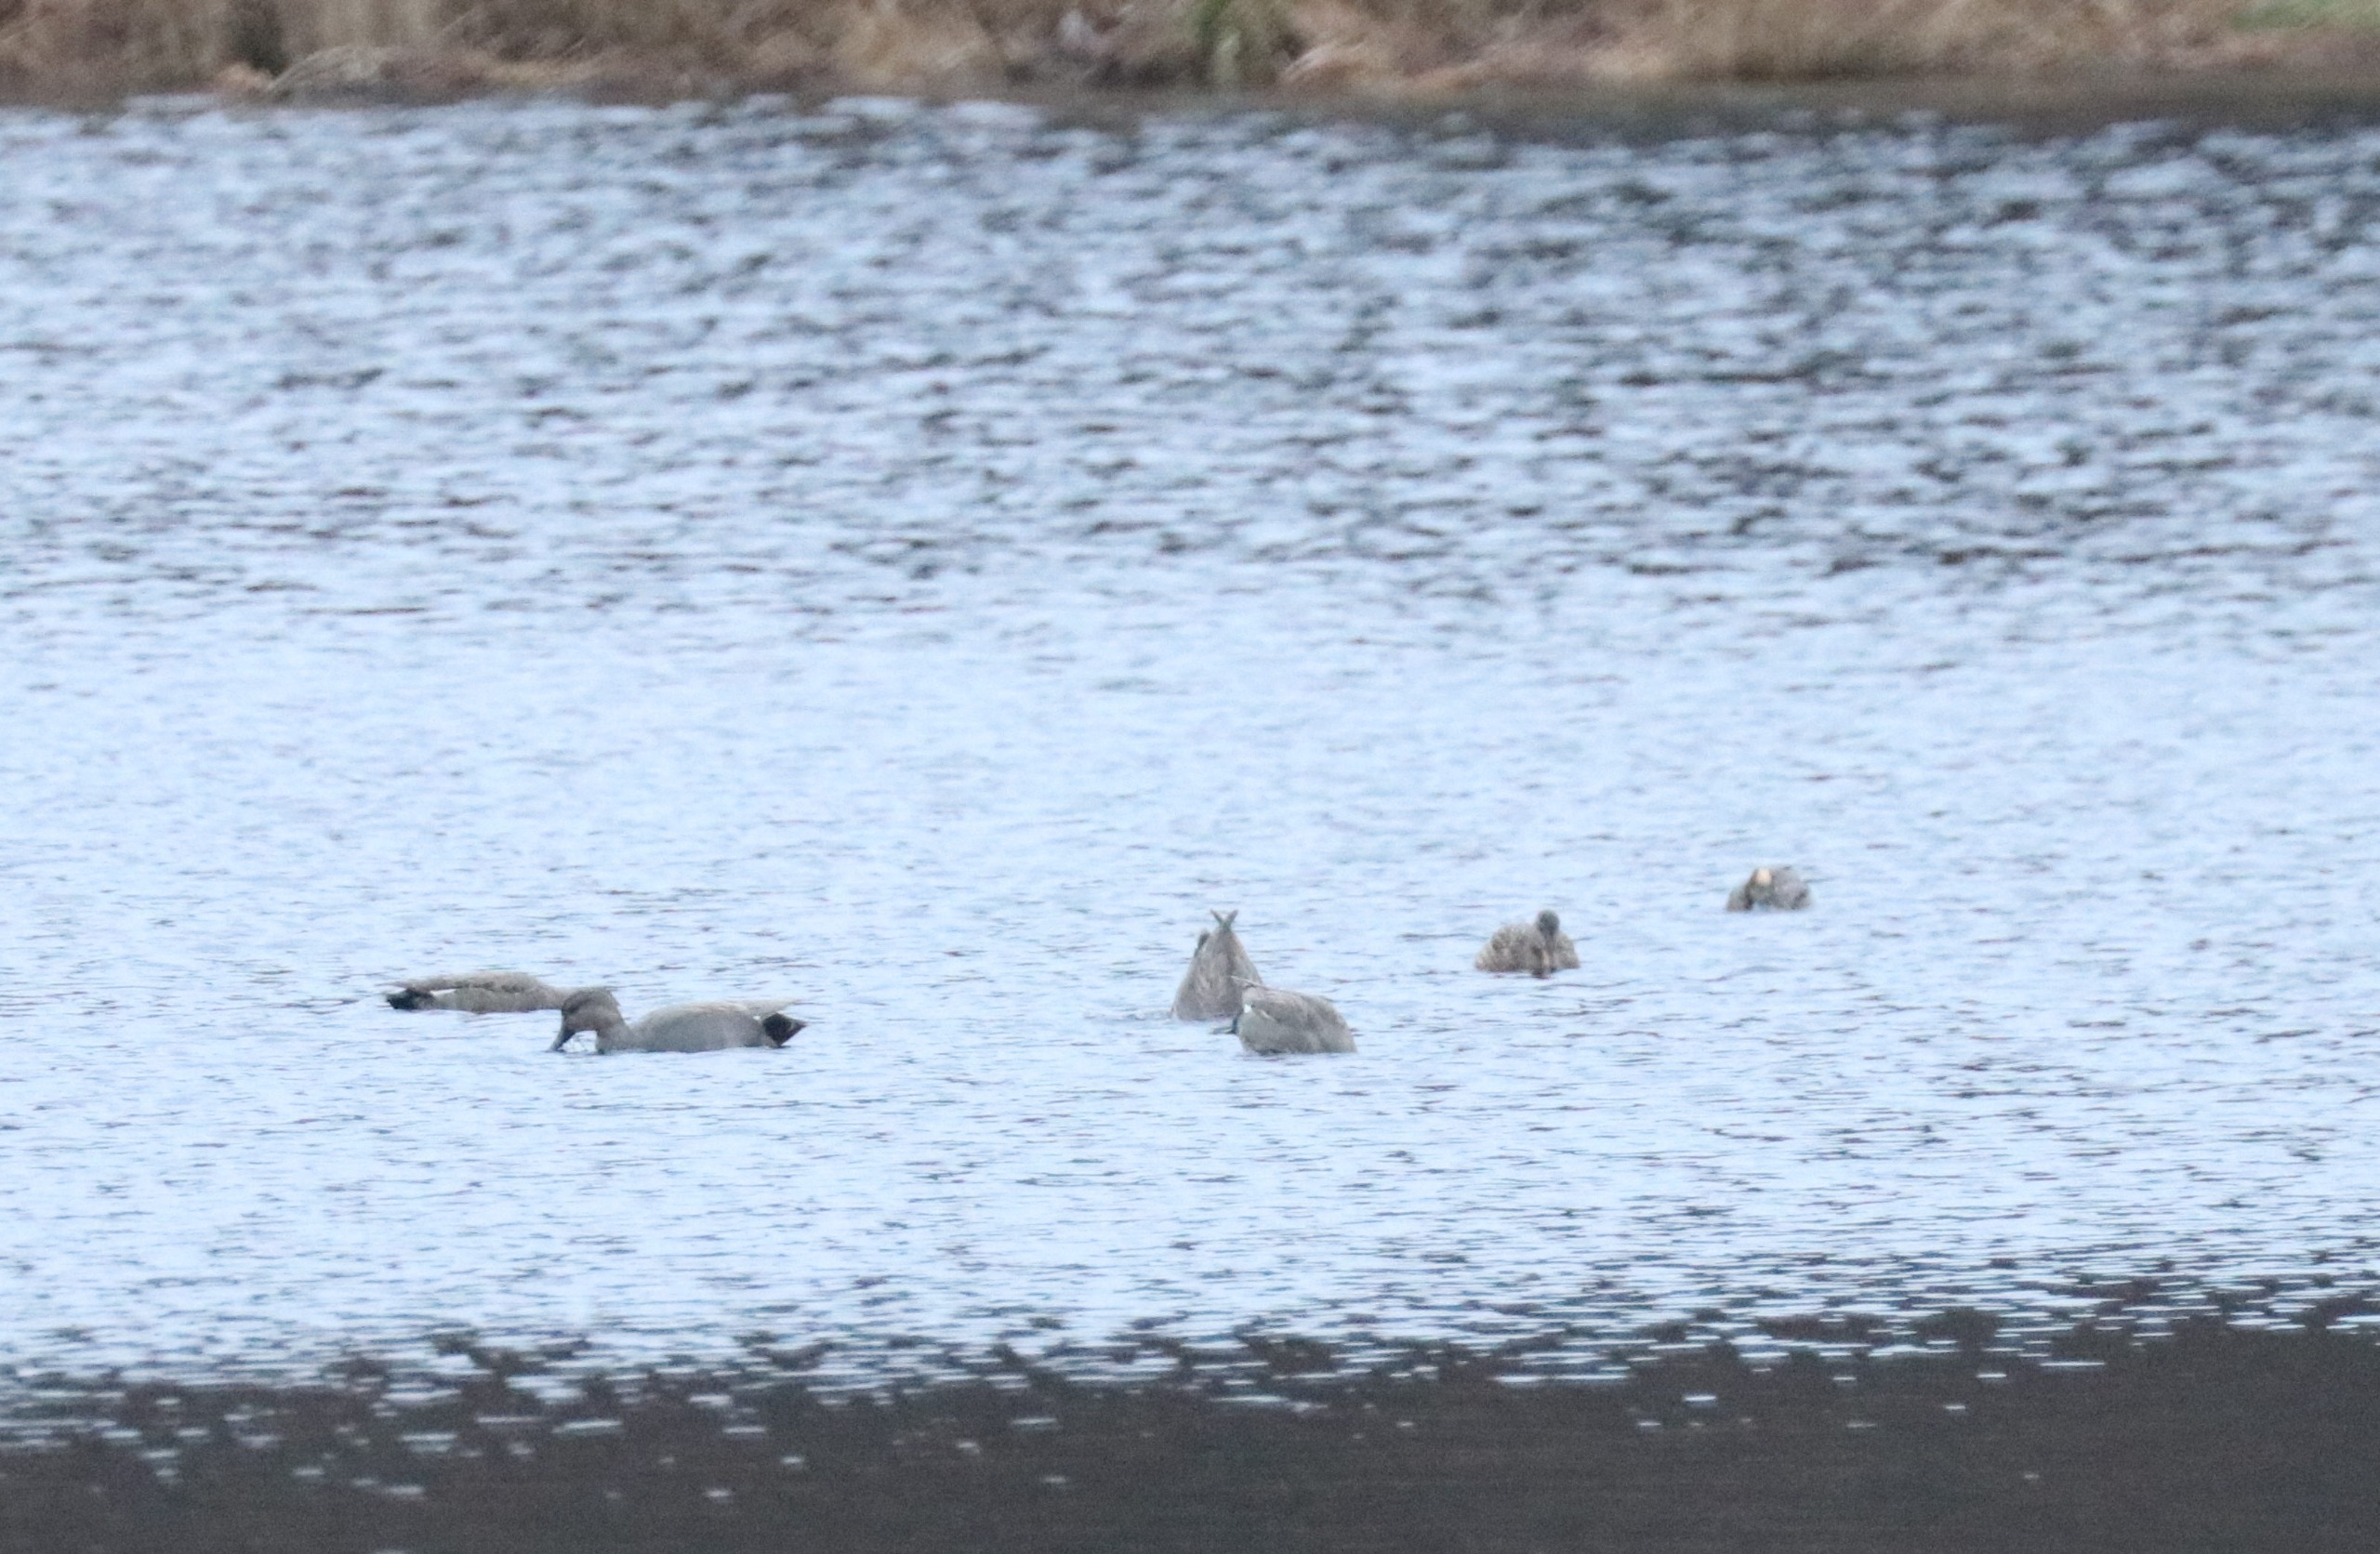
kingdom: Animalia
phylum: Chordata
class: Aves
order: Anseriformes
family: Anatidae
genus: Mareca
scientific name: Mareca strepera
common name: Knarand
